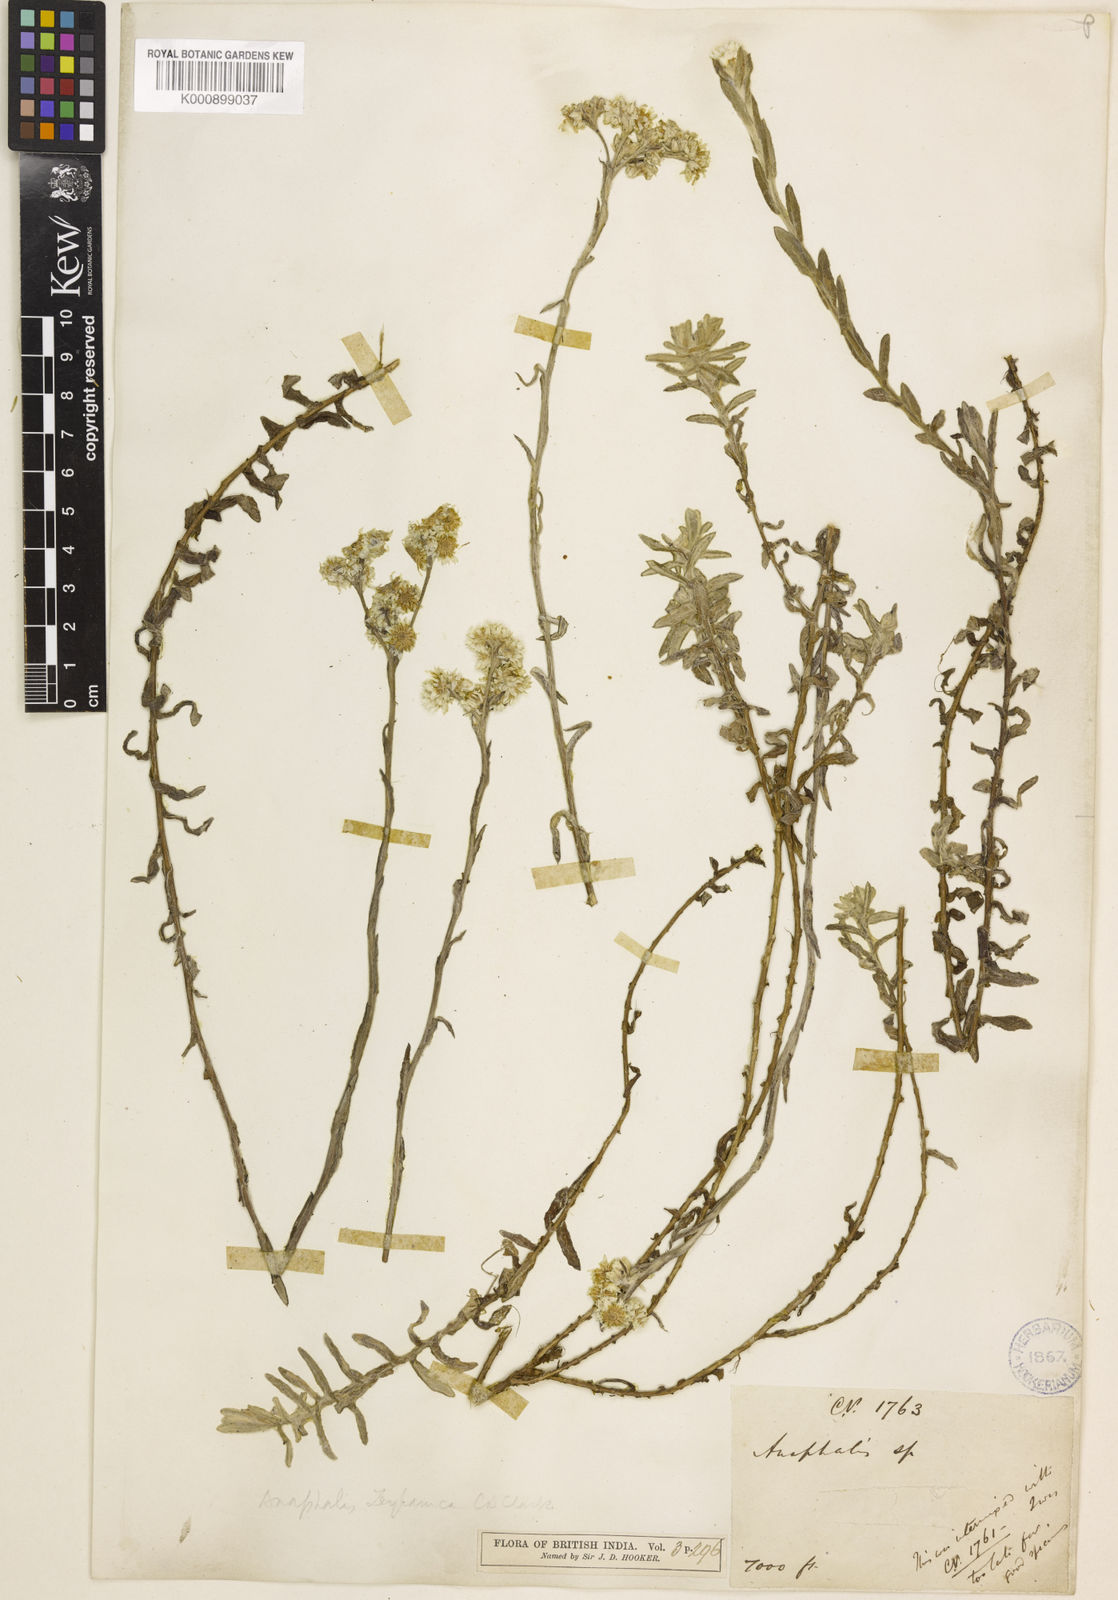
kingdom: Plantae
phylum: Tracheophyta
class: Magnoliopsida
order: Asterales
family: Asteraceae
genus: Anaphalis
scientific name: Anaphalis zeylanica
